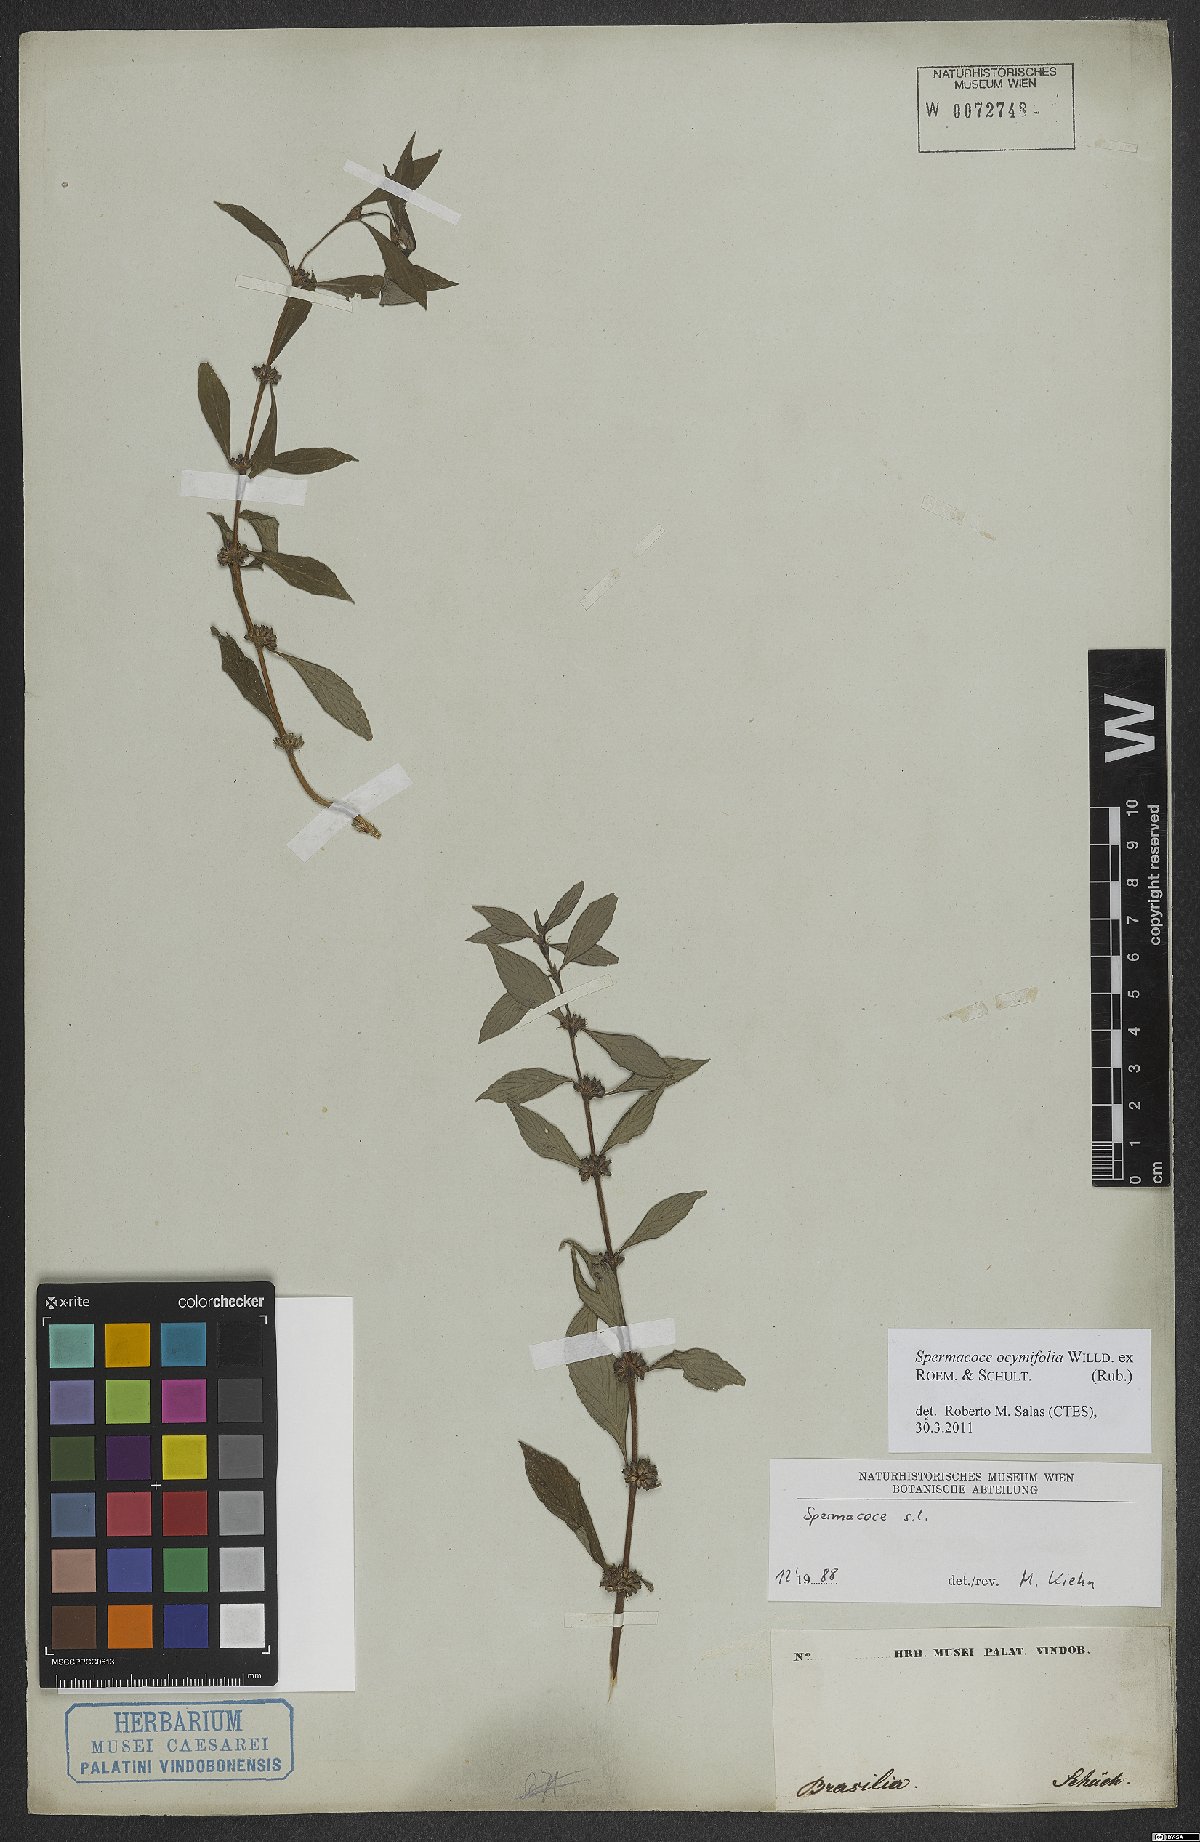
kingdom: Plantae
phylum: Tracheophyta
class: Magnoliopsida
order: Gentianales
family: Rubiaceae
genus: Spermacoce
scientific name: Spermacoce ocymifolia
